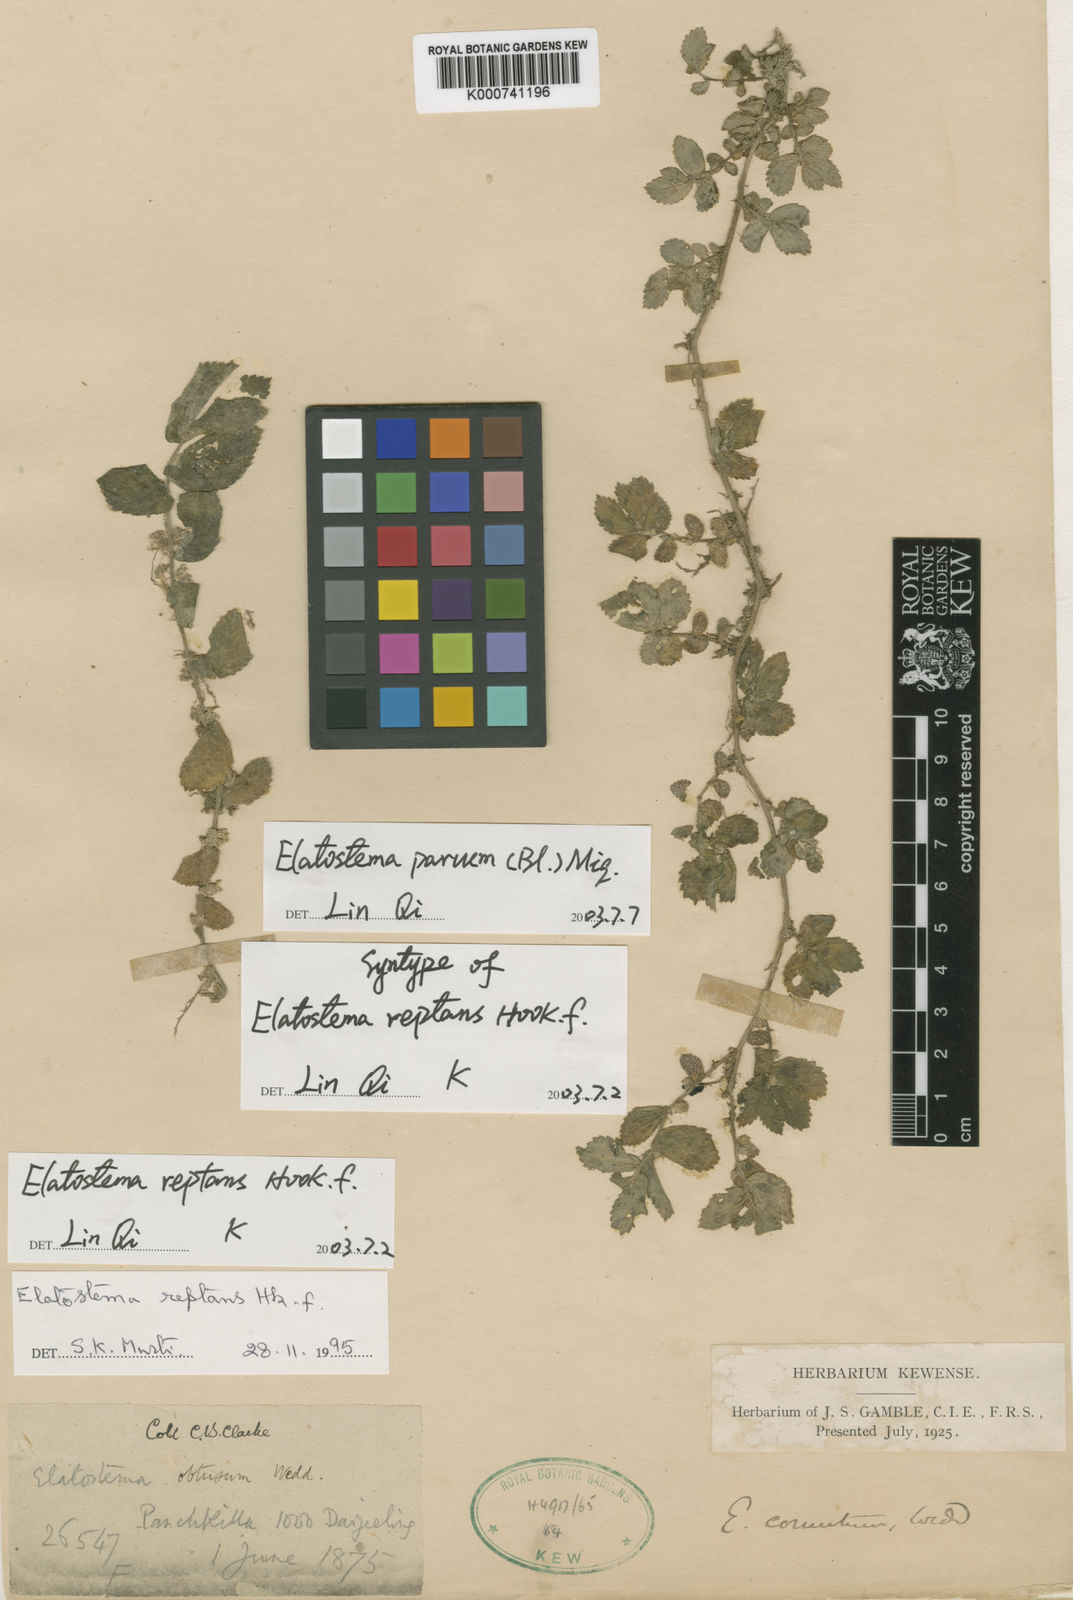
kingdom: Plantae
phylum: Tracheophyta
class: Magnoliopsida
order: Rosales
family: Urticaceae
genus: Elatostema
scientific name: Elatostema parvum
